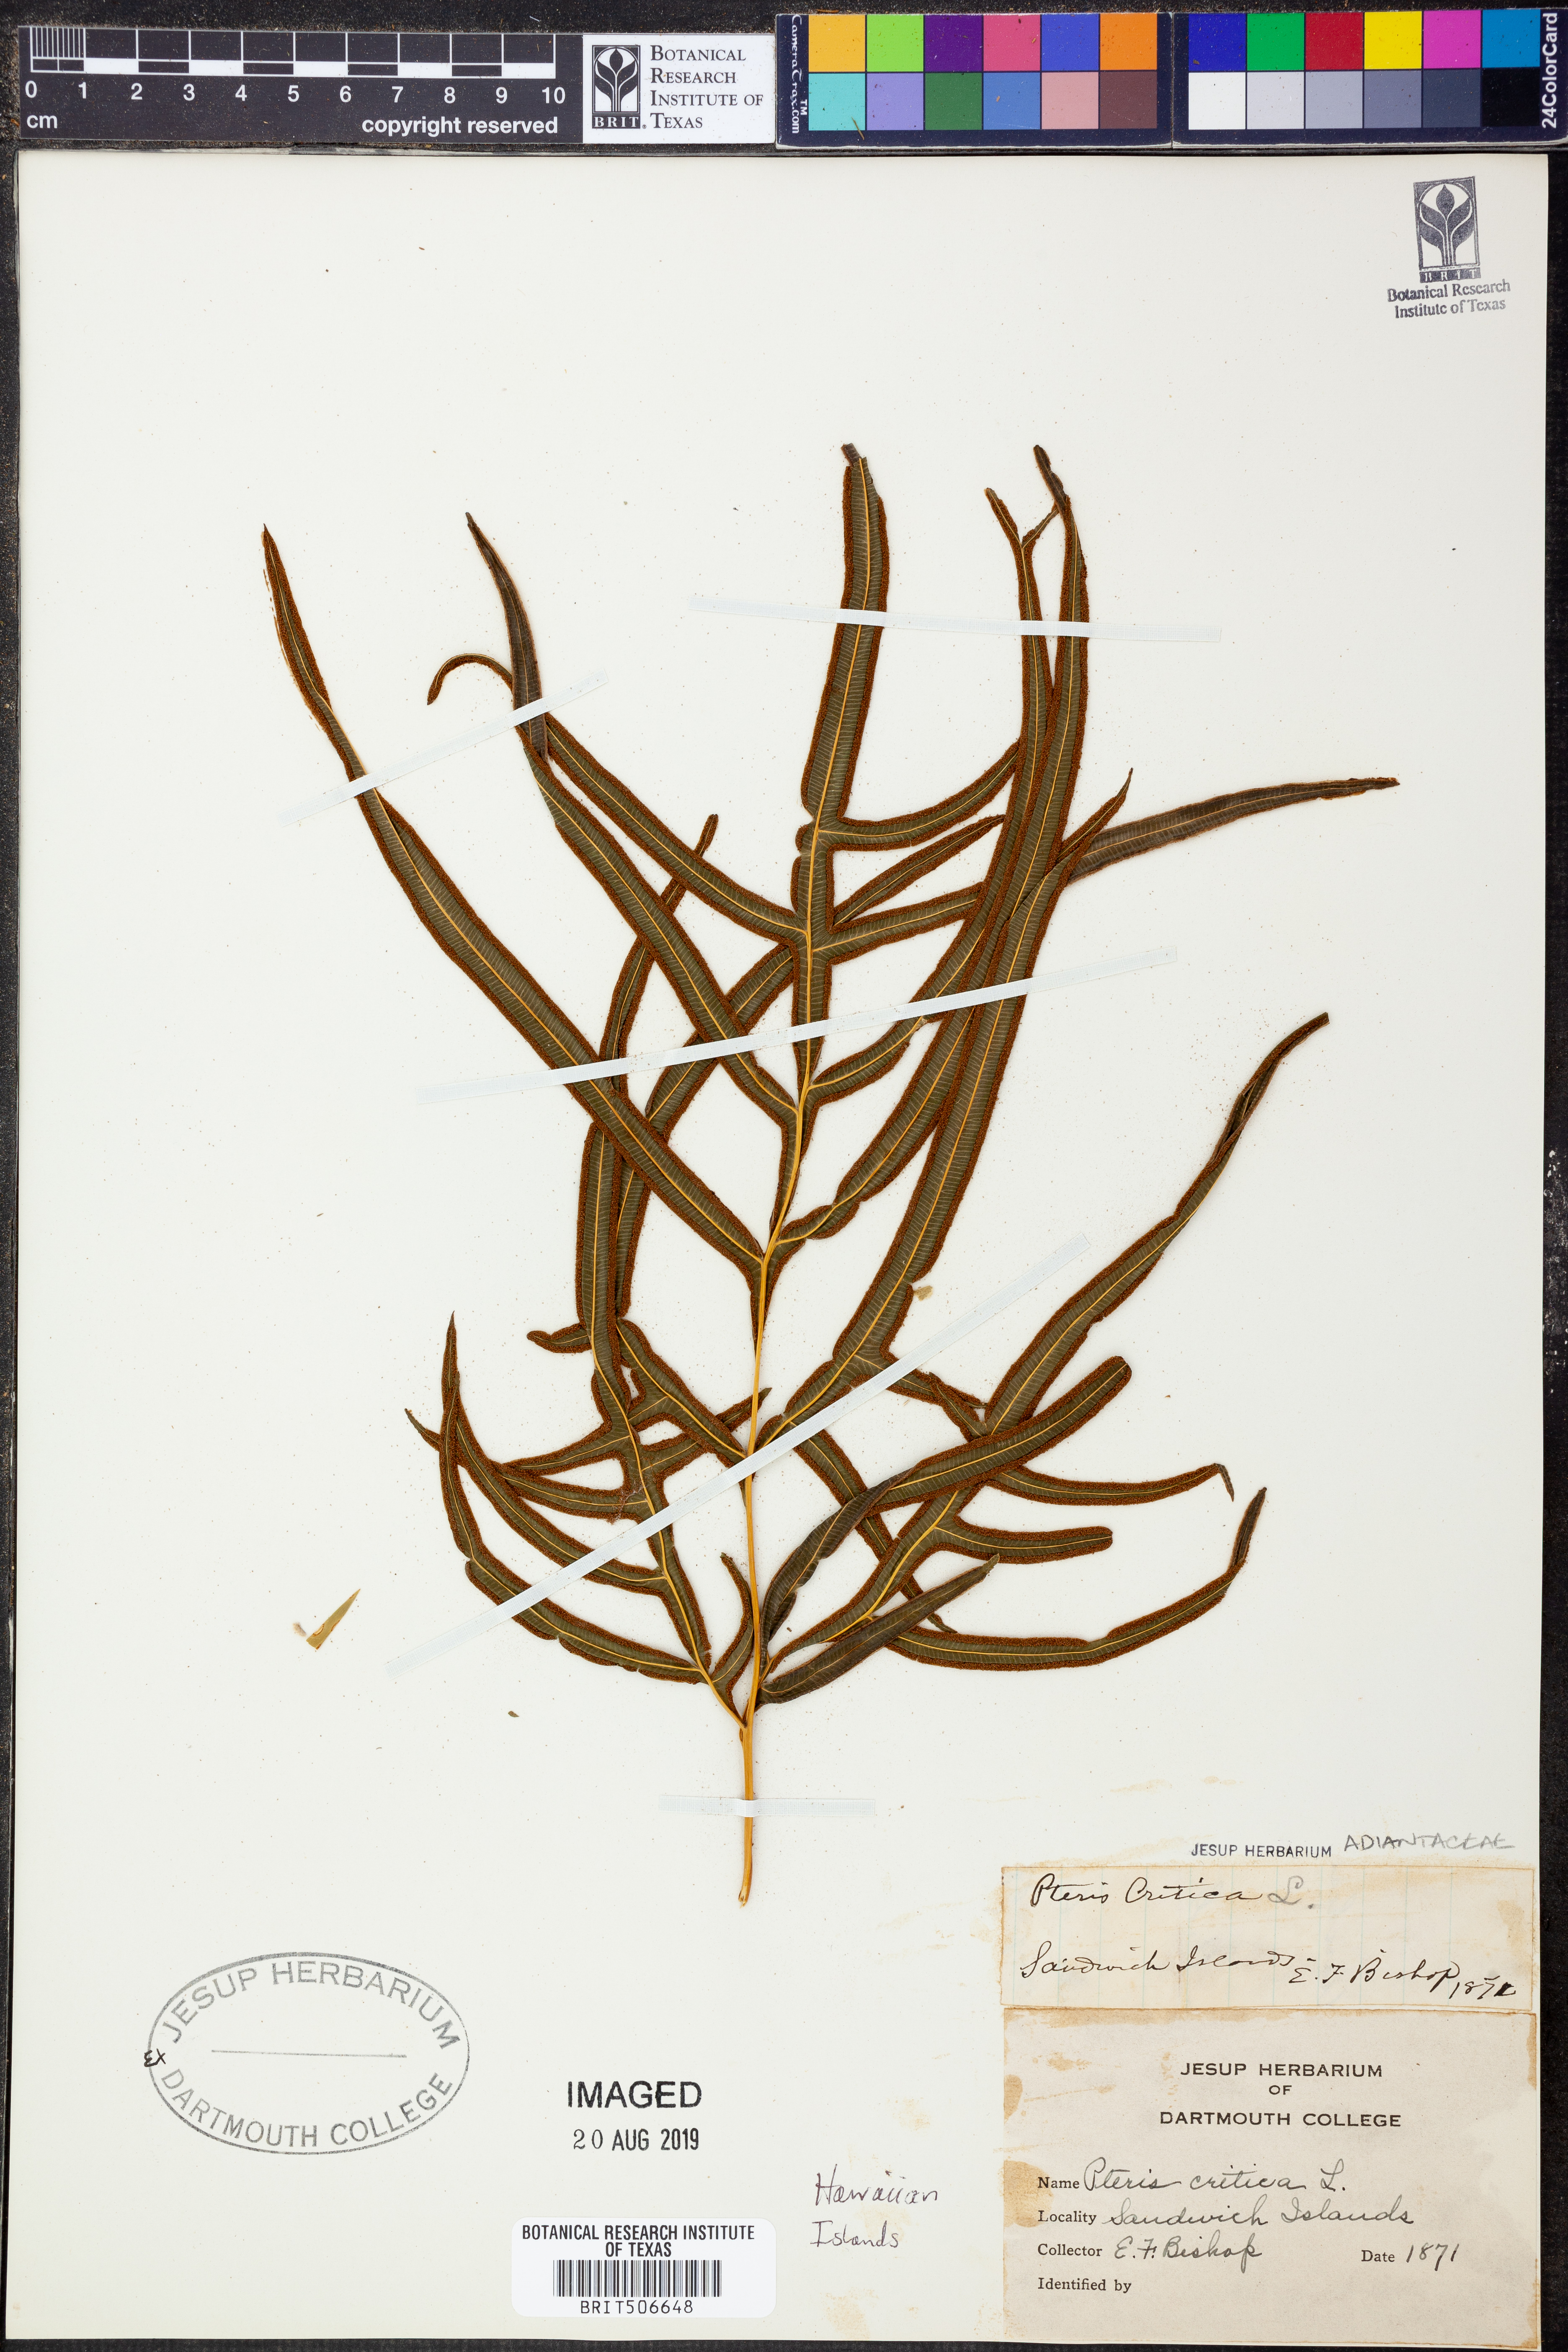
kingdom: Plantae
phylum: Tracheophyta
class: Polypodiopsida
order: Polypodiales
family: Pteridaceae
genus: Pteris
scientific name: Pteris cretica
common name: Ribbon fern
